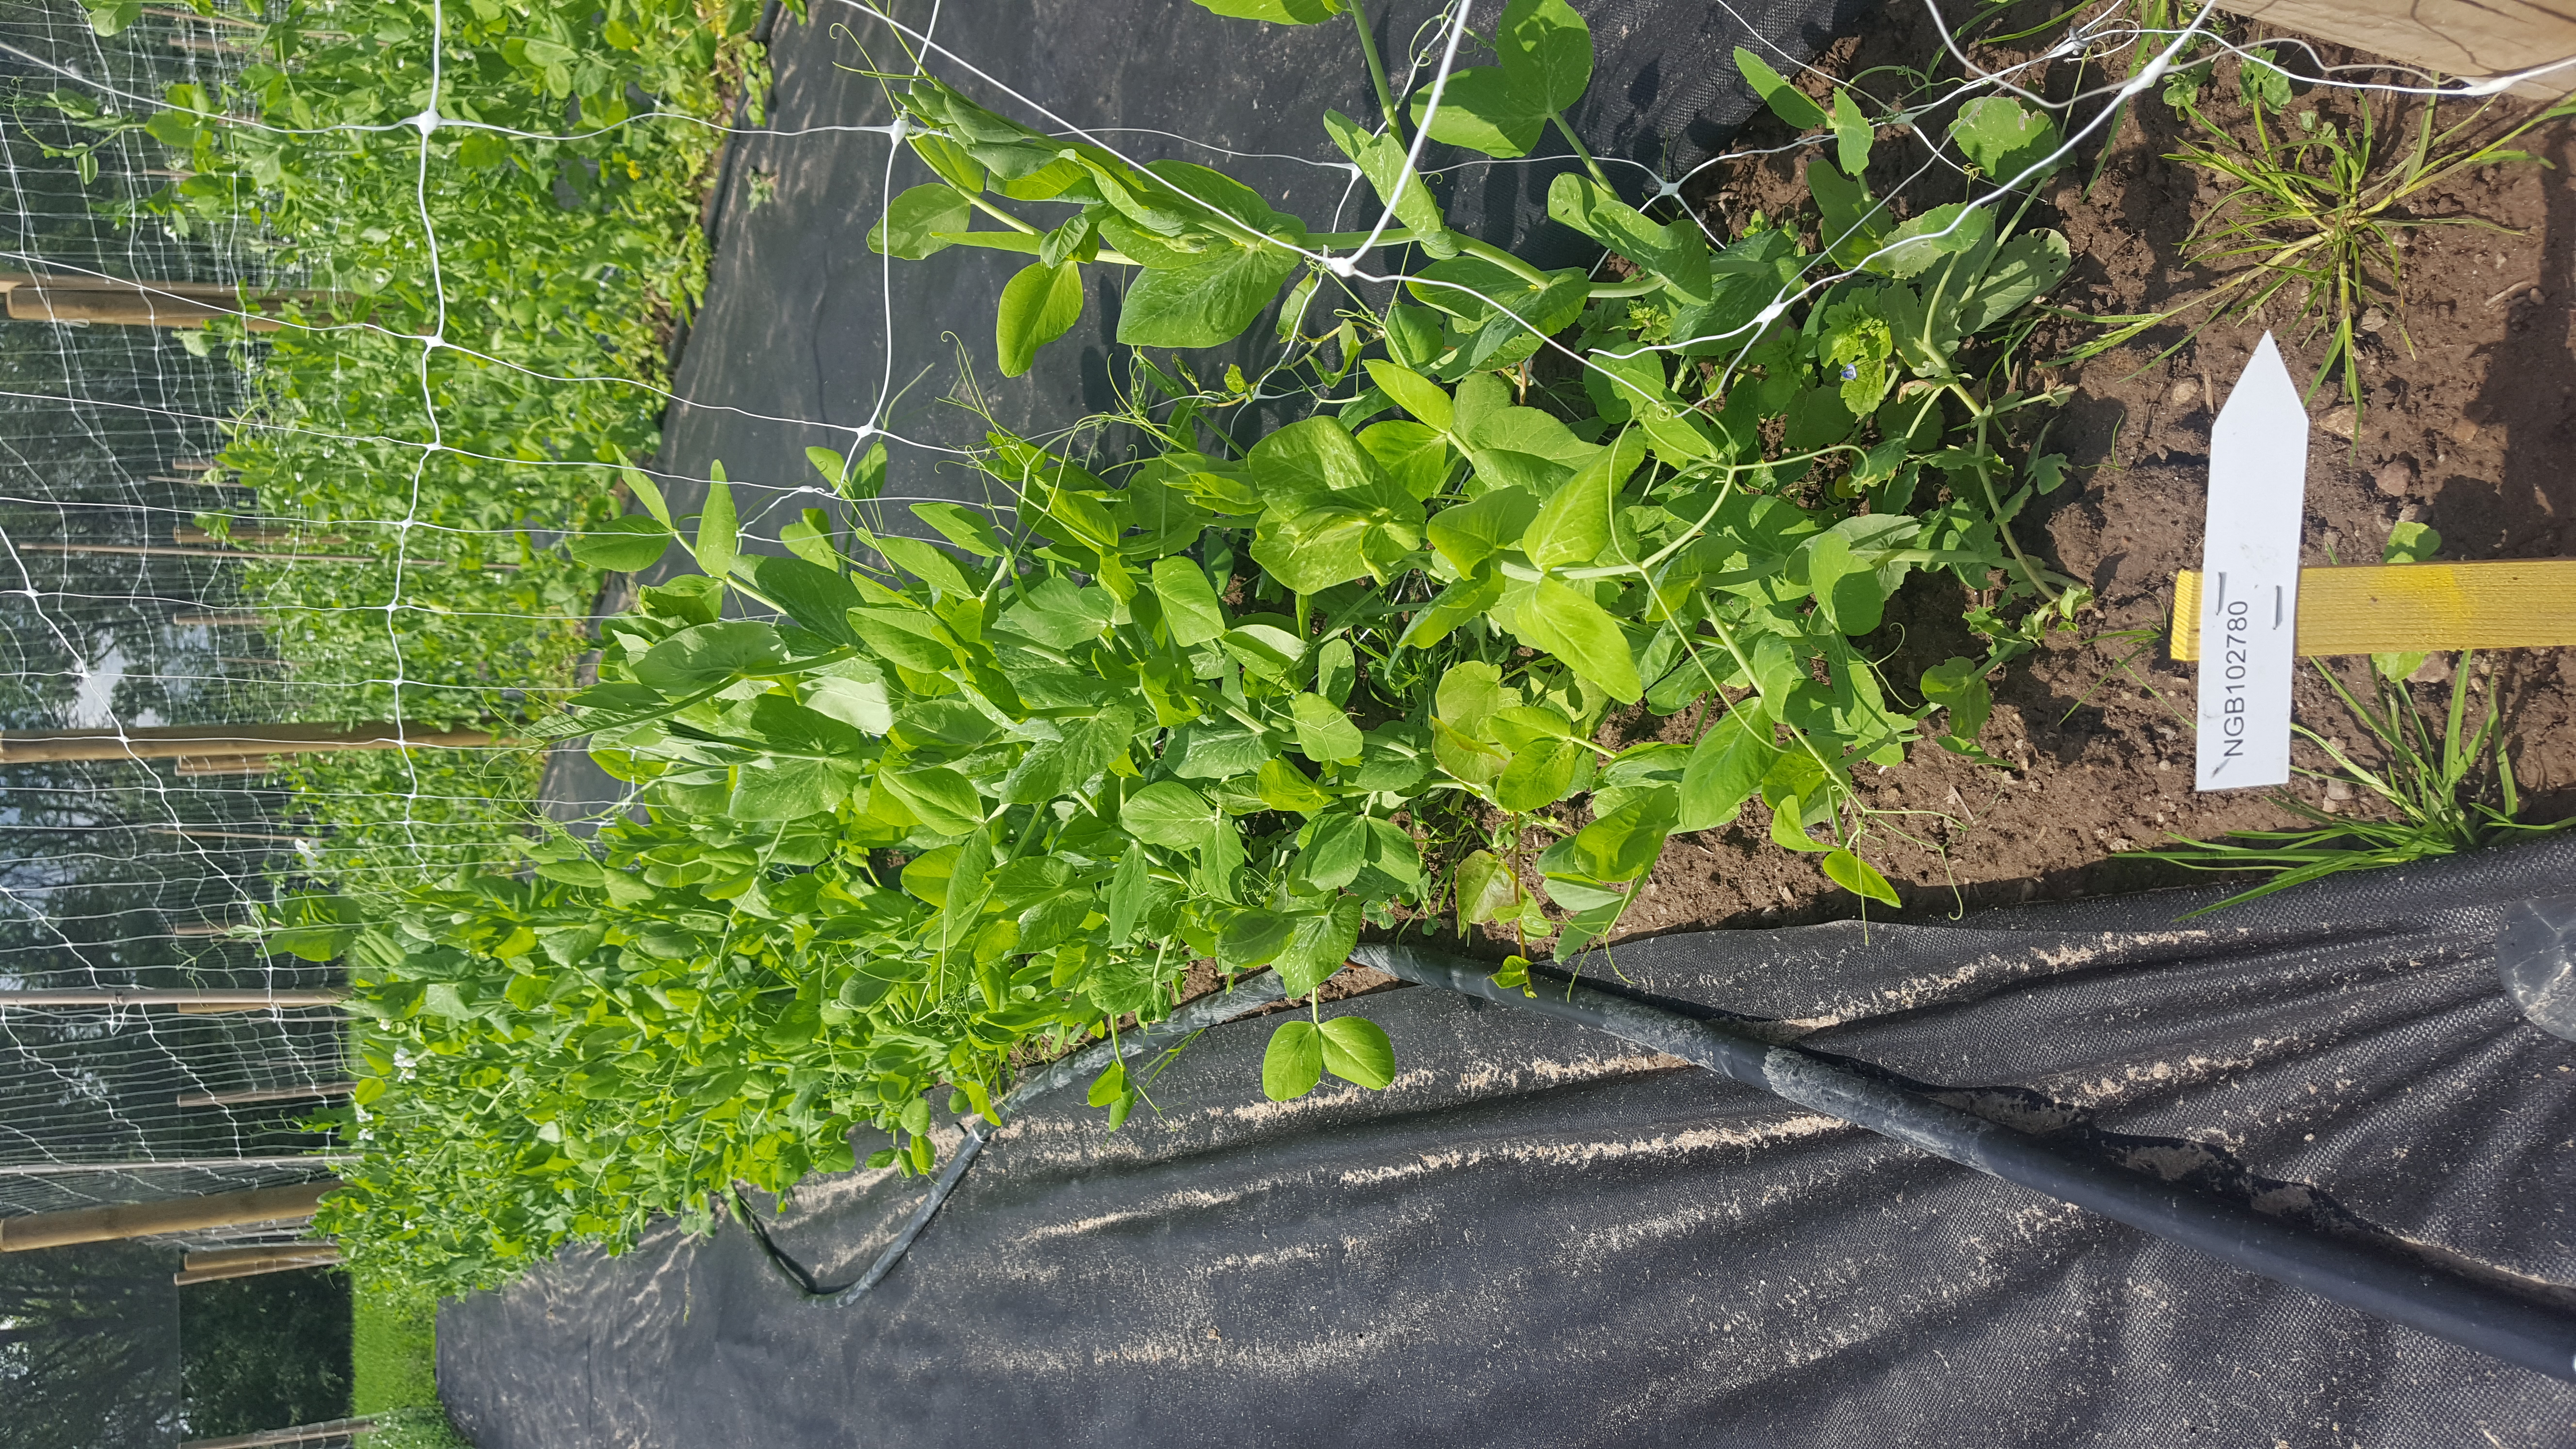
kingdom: Plantae
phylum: Tracheophyta
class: Magnoliopsida
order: Fabales
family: Fabaceae
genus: Lathyrus
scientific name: Lathyrus oleraceus
